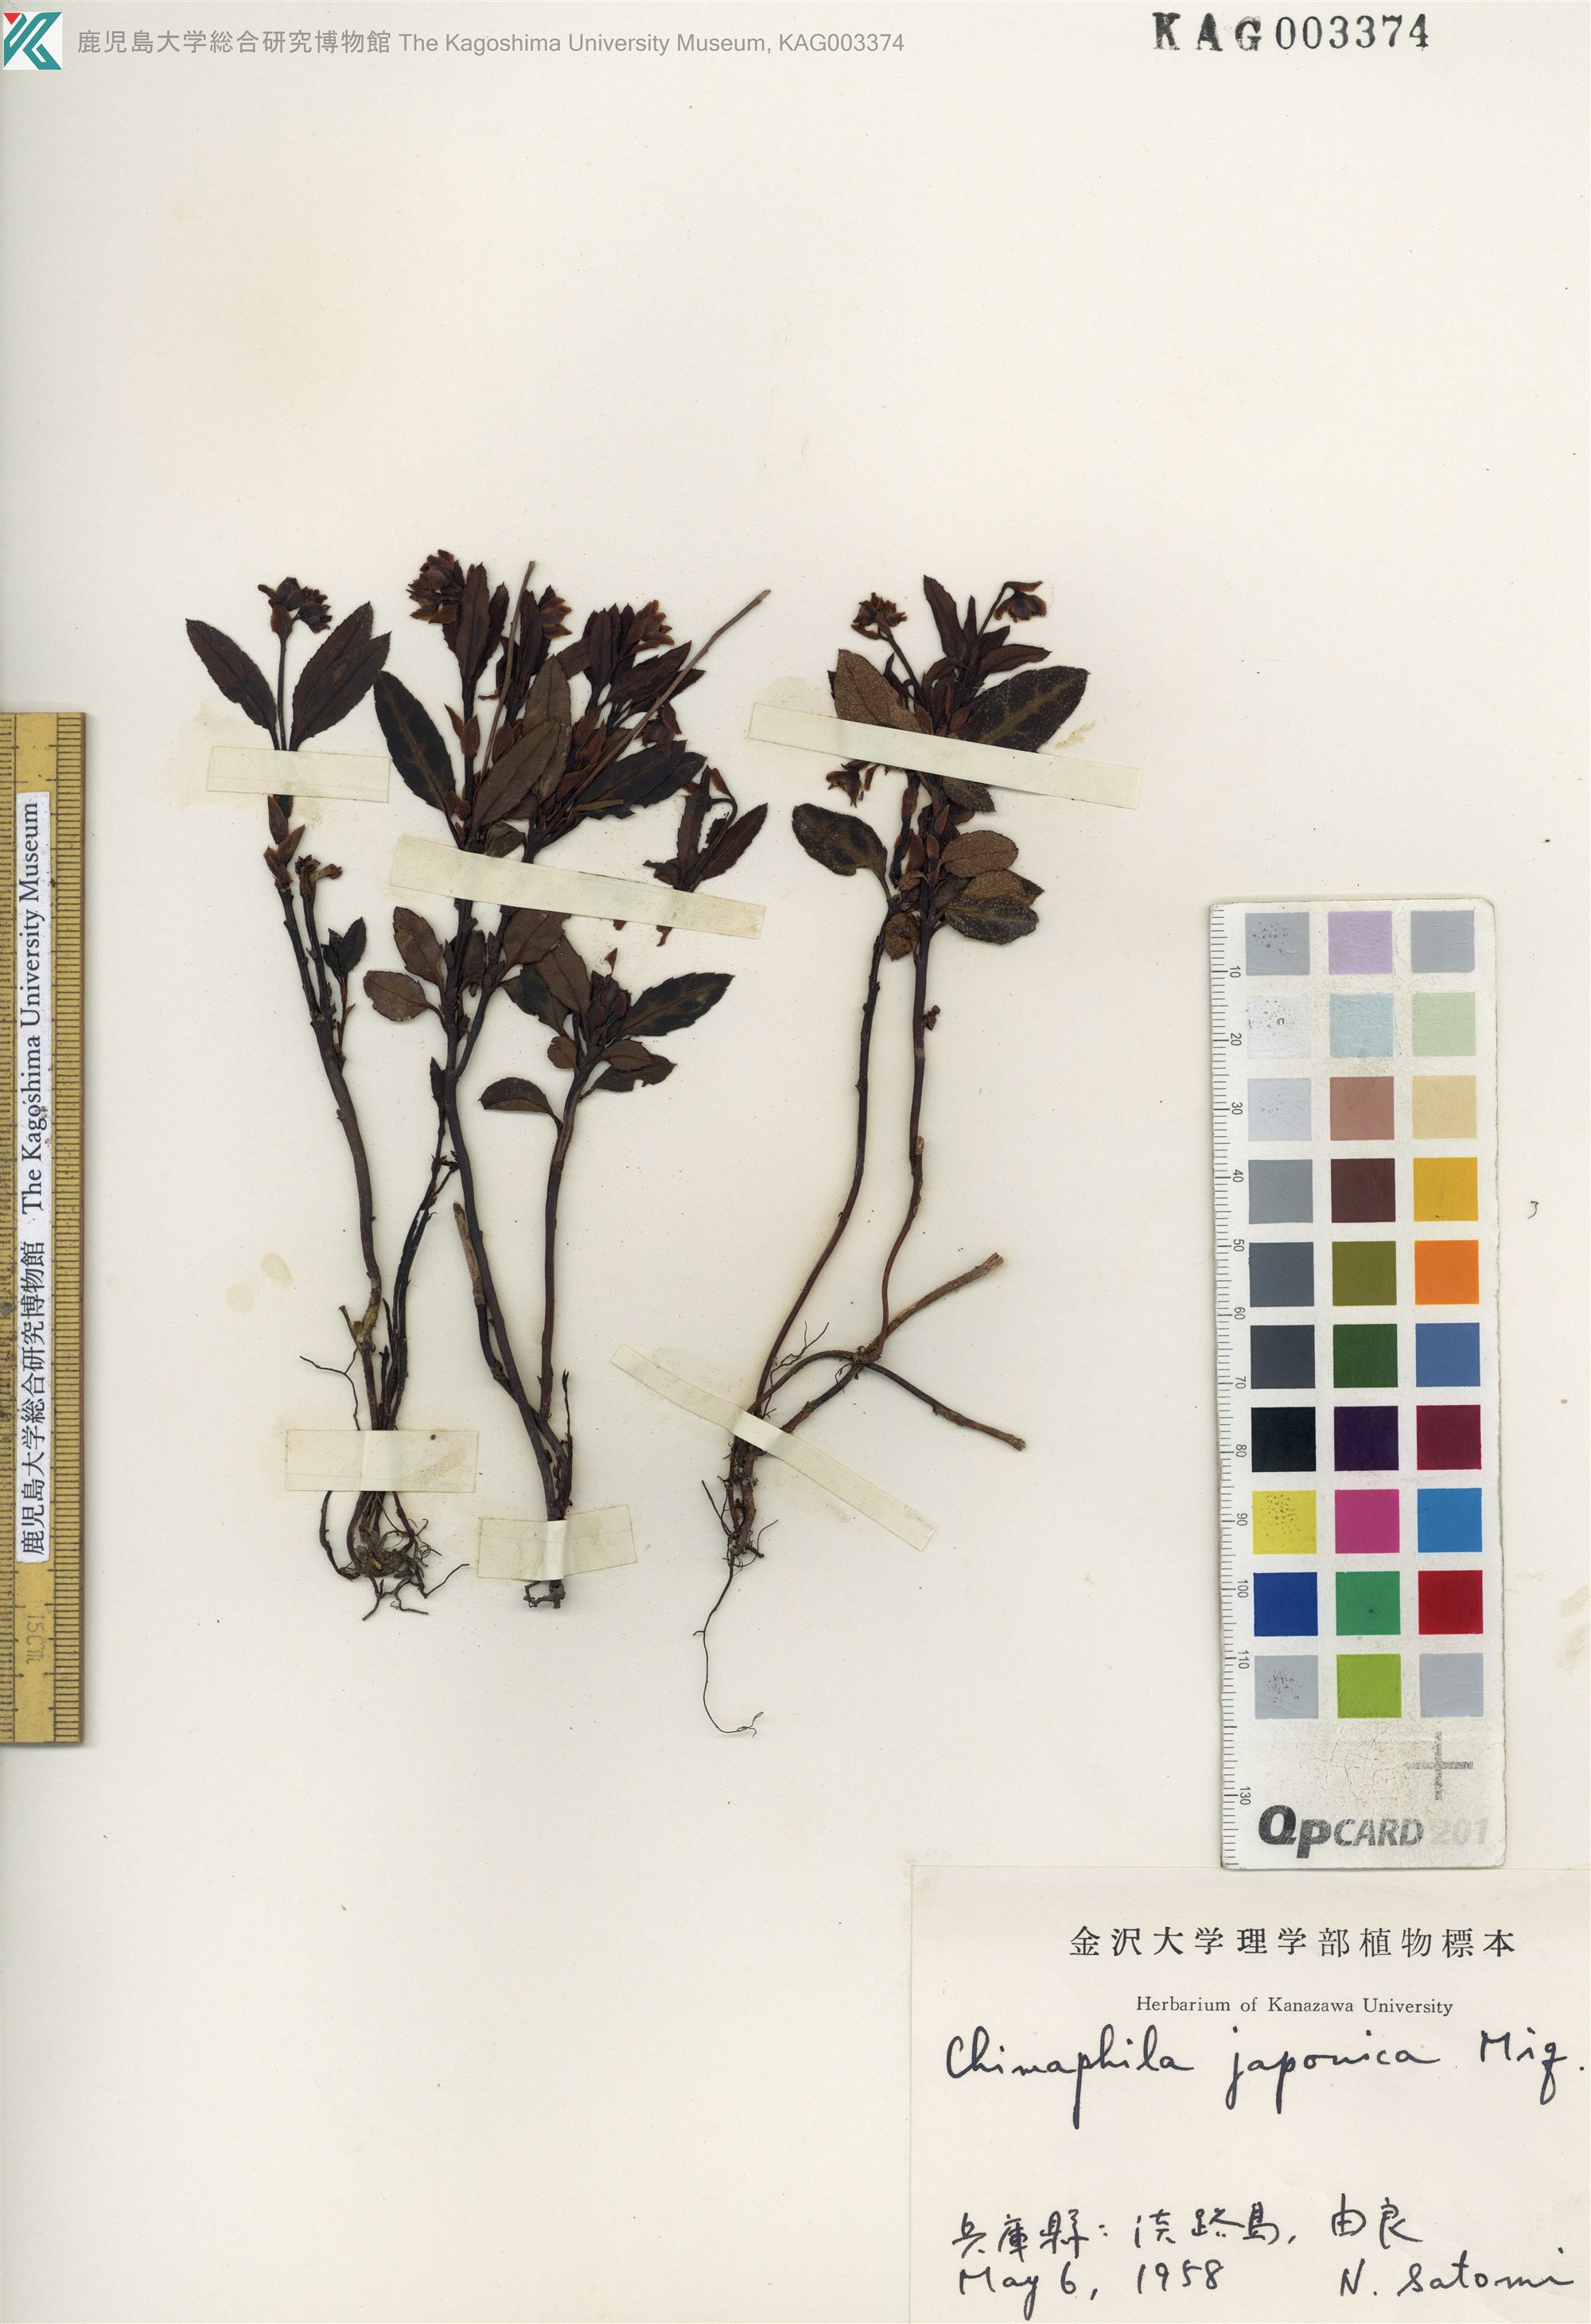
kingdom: Plantae
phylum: Tracheophyta
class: Magnoliopsida
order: Ericales
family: Ericaceae
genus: Chimaphila
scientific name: Chimaphila japonica
